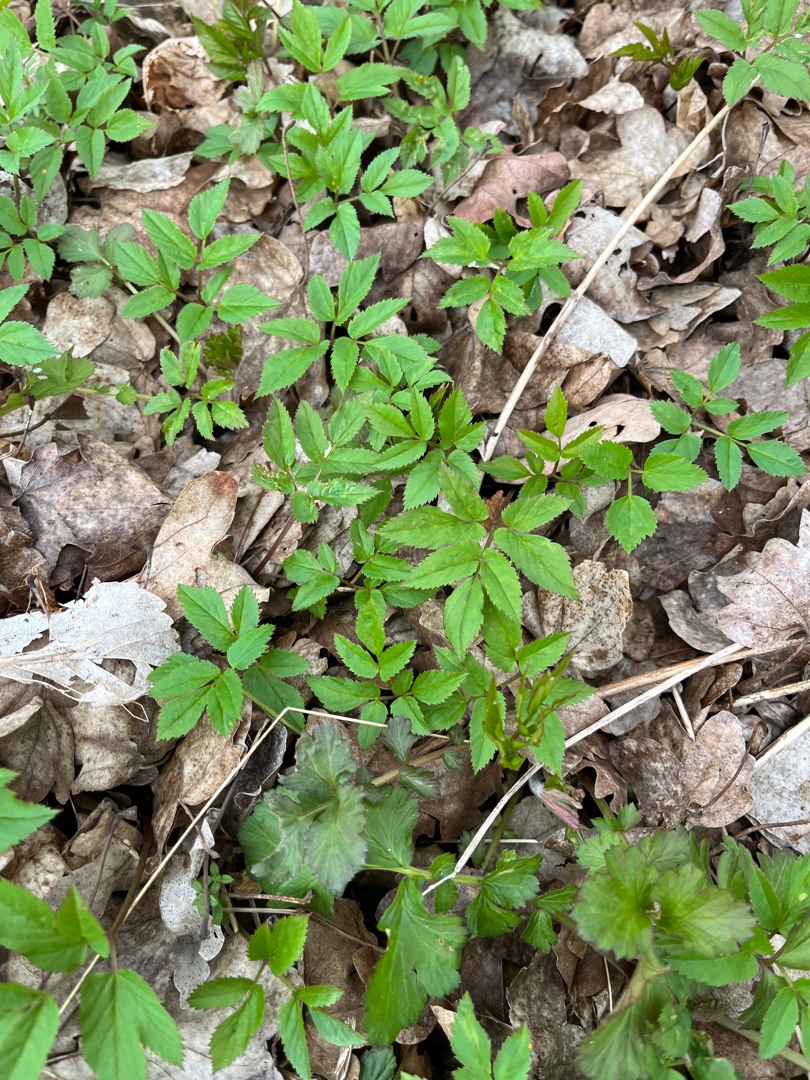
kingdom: Plantae
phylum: Tracheophyta
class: Magnoliopsida
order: Apiales
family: Apiaceae
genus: Aegopodium
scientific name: Aegopodium podagraria
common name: Skvalderkål
